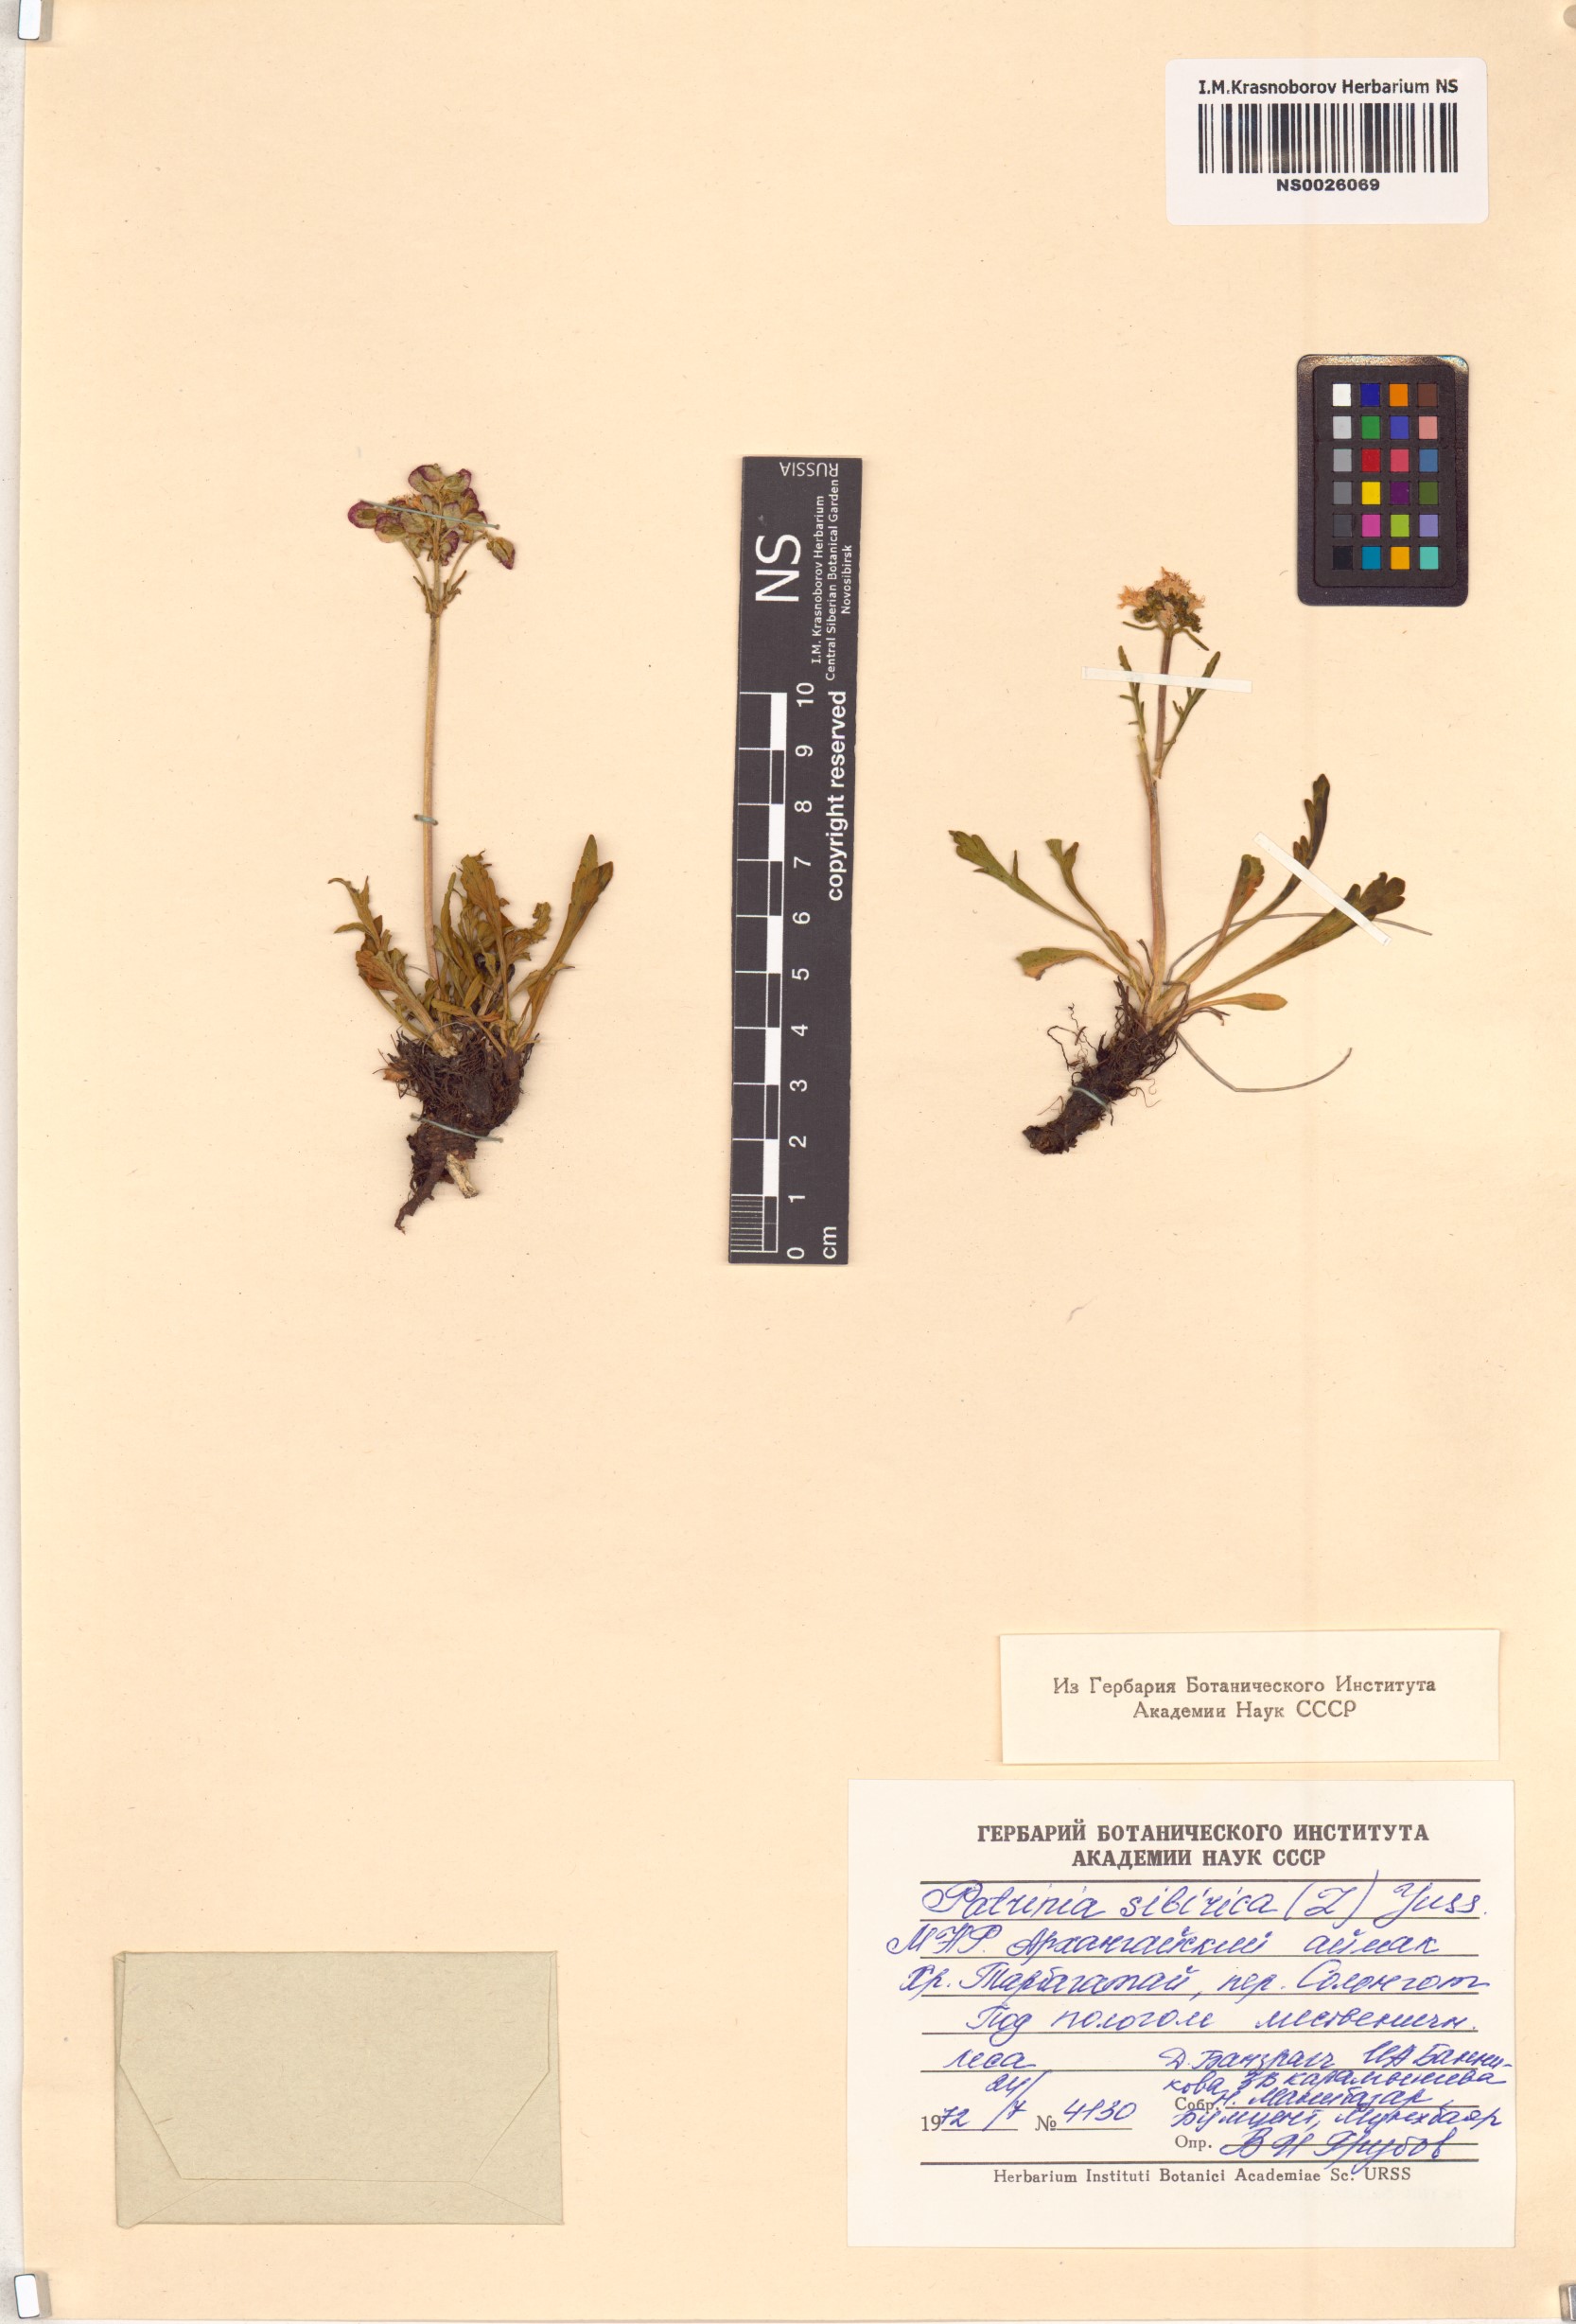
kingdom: Plantae
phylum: Tracheophyta
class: Magnoliopsida
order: Dipsacales
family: Caprifoliaceae
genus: Patrinia
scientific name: Patrinia sibirica
